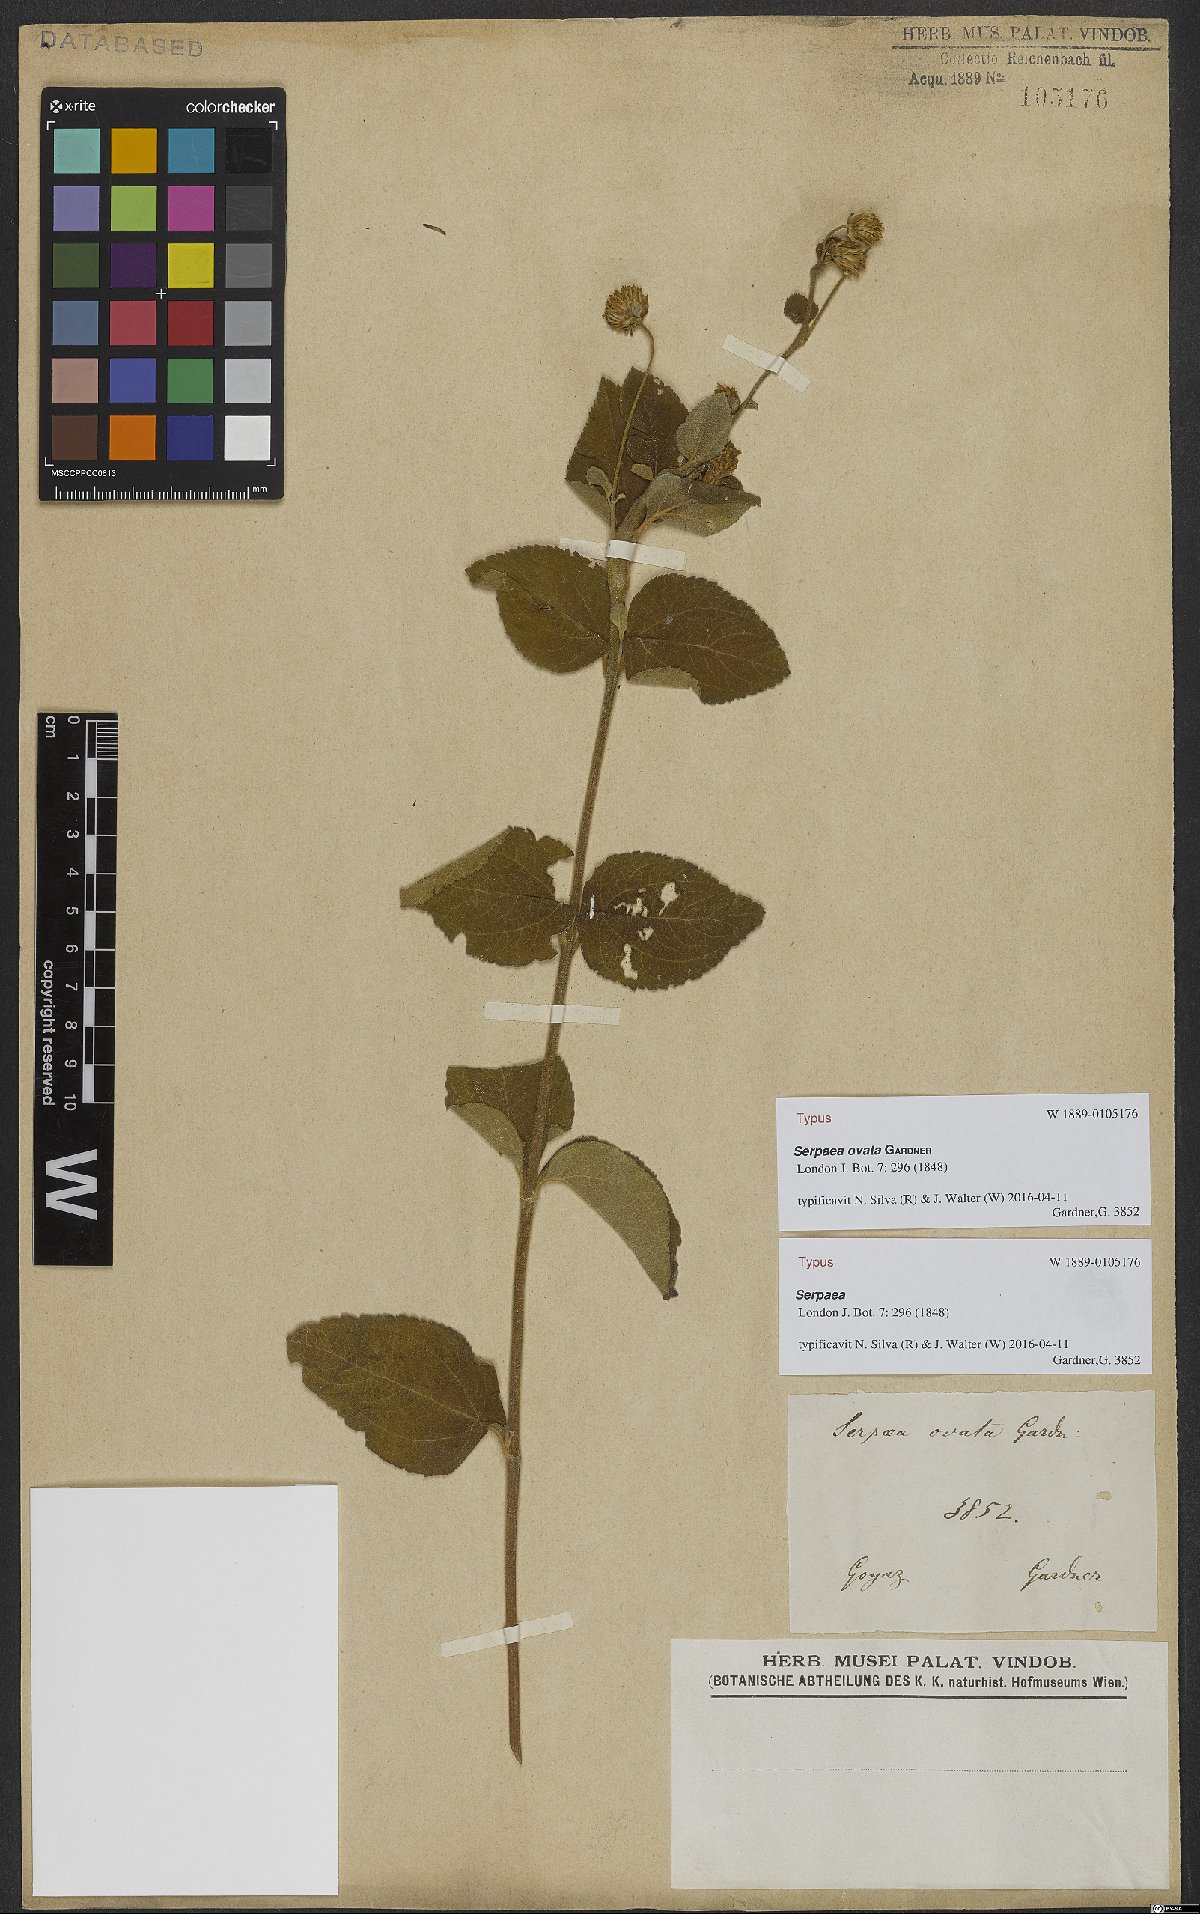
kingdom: Plantae
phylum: Tracheophyta
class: Magnoliopsida
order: Asterales
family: Asteraceae
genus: Oyedaea
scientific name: Oyedaea ovata
